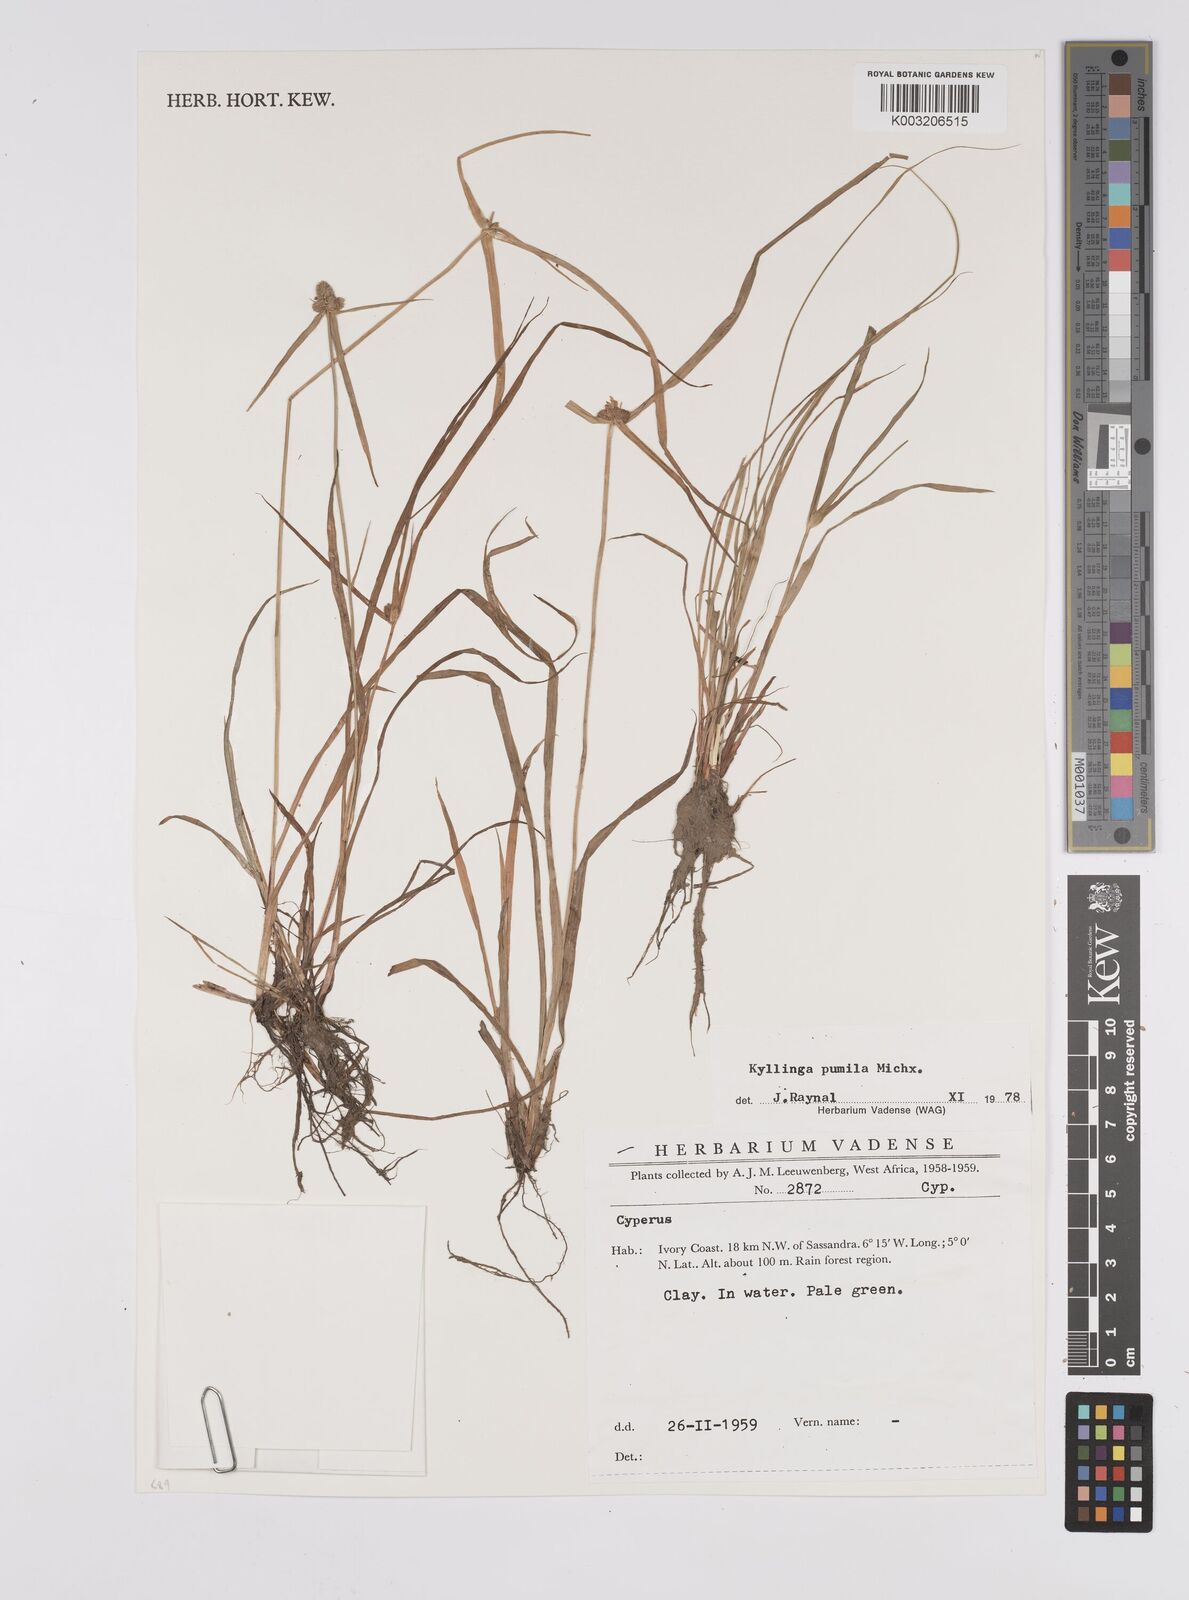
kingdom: Plantae
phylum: Tracheophyta
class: Liliopsida
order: Poales
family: Cyperaceae
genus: Cyperus
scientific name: Cyperus
